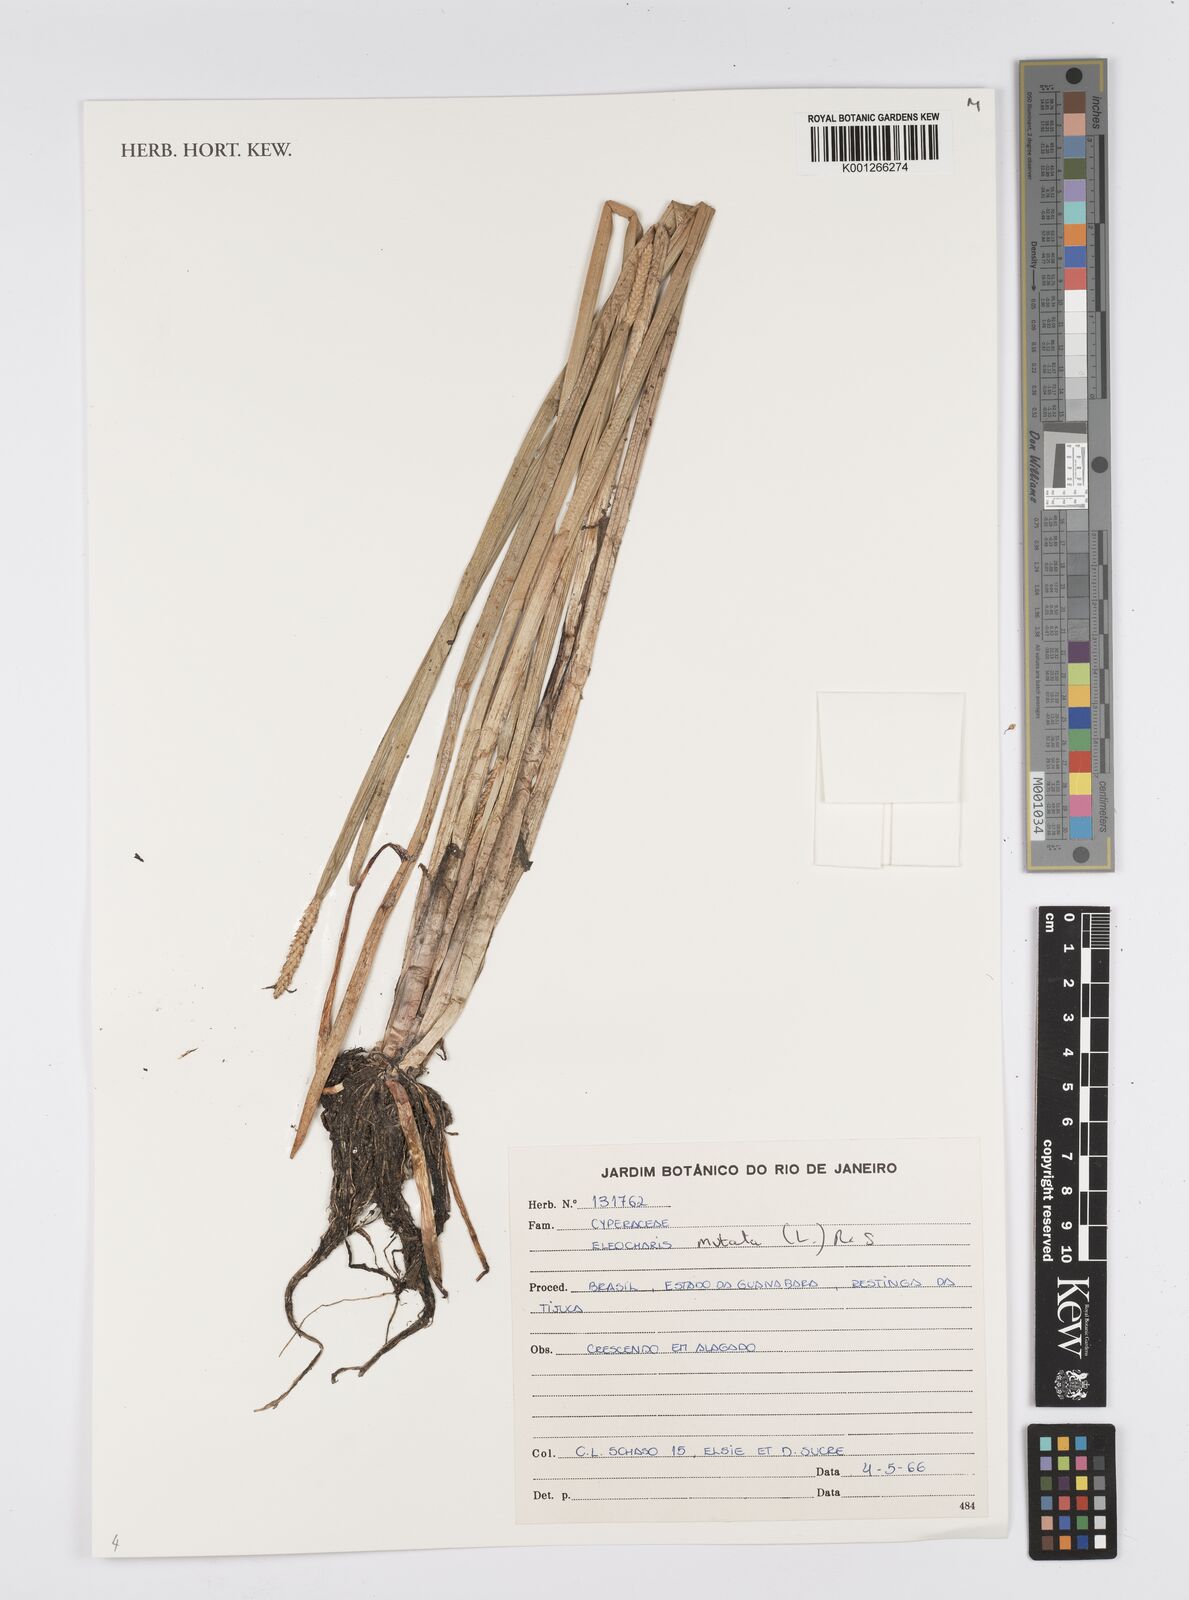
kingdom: Plantae
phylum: Tracheophyta
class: Liliopsida
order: Poales
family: Cyperaceae
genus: Eleocharis
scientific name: Eleocharis mutata
